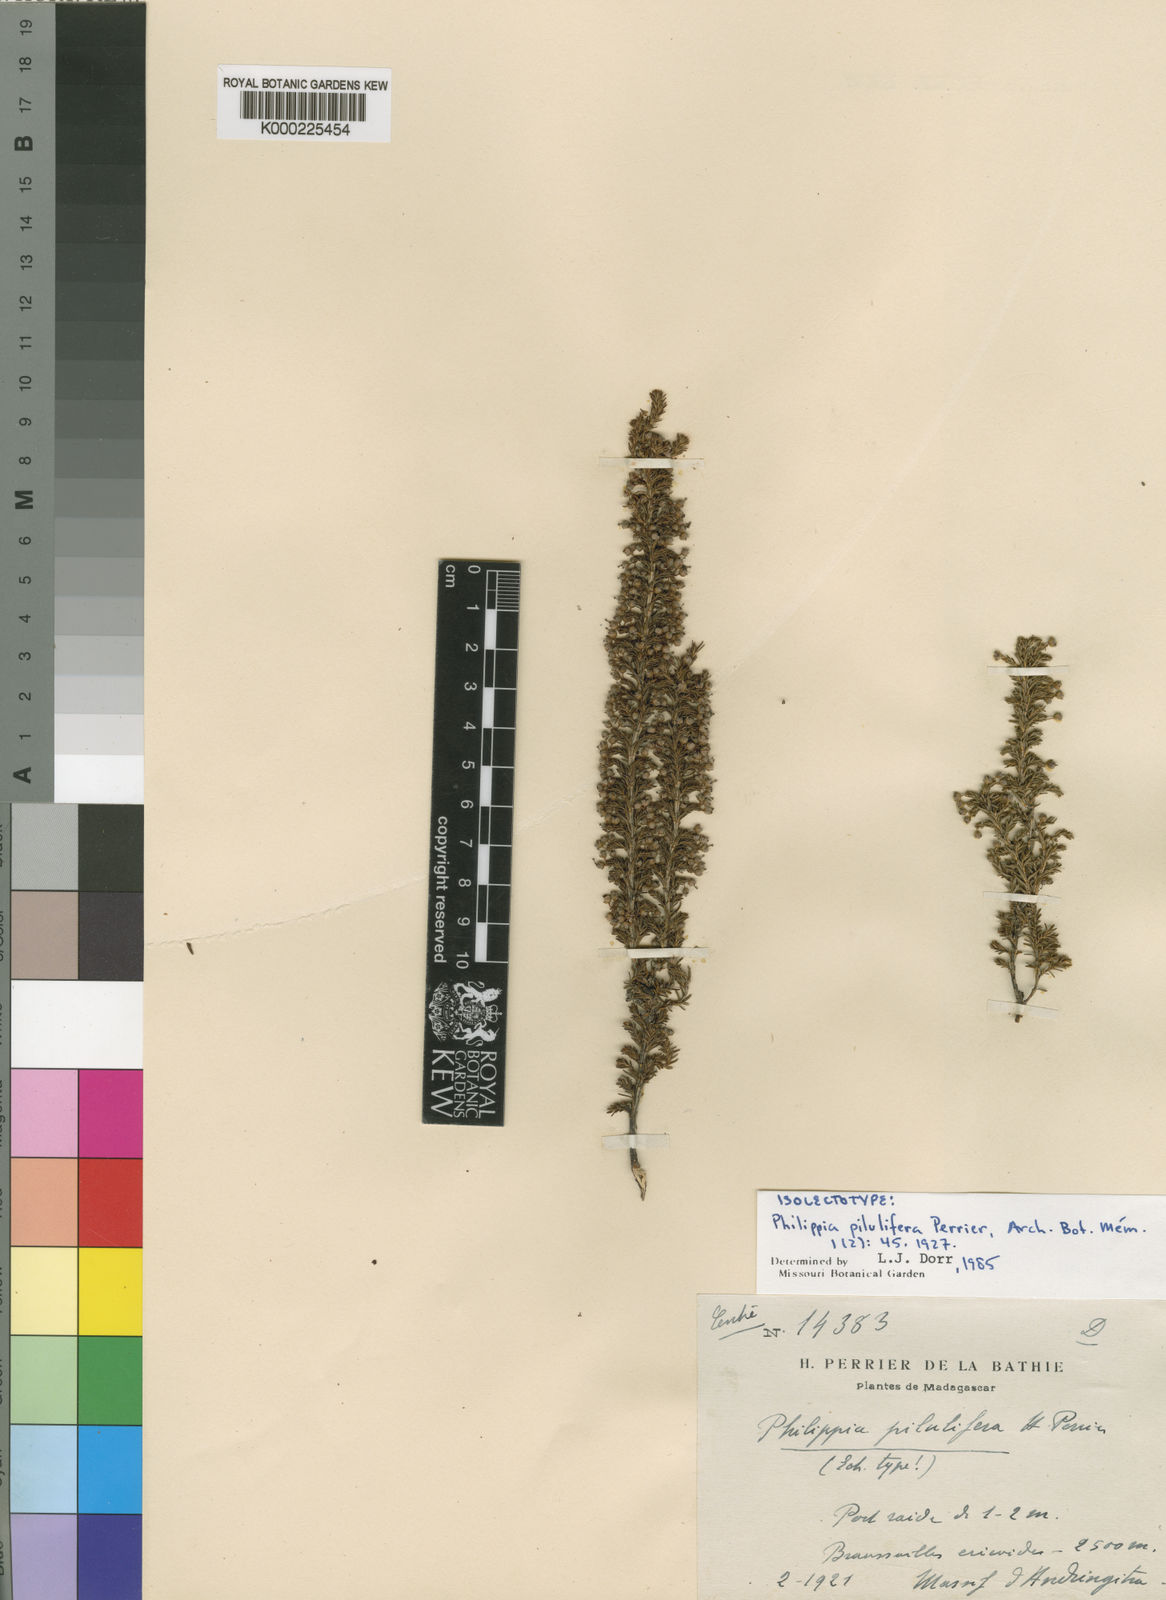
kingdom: Plantae
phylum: Tracheophyta
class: Magnoliopsida
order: Ericales
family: Ericaceae
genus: Erica
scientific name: Erica wangfatiana
